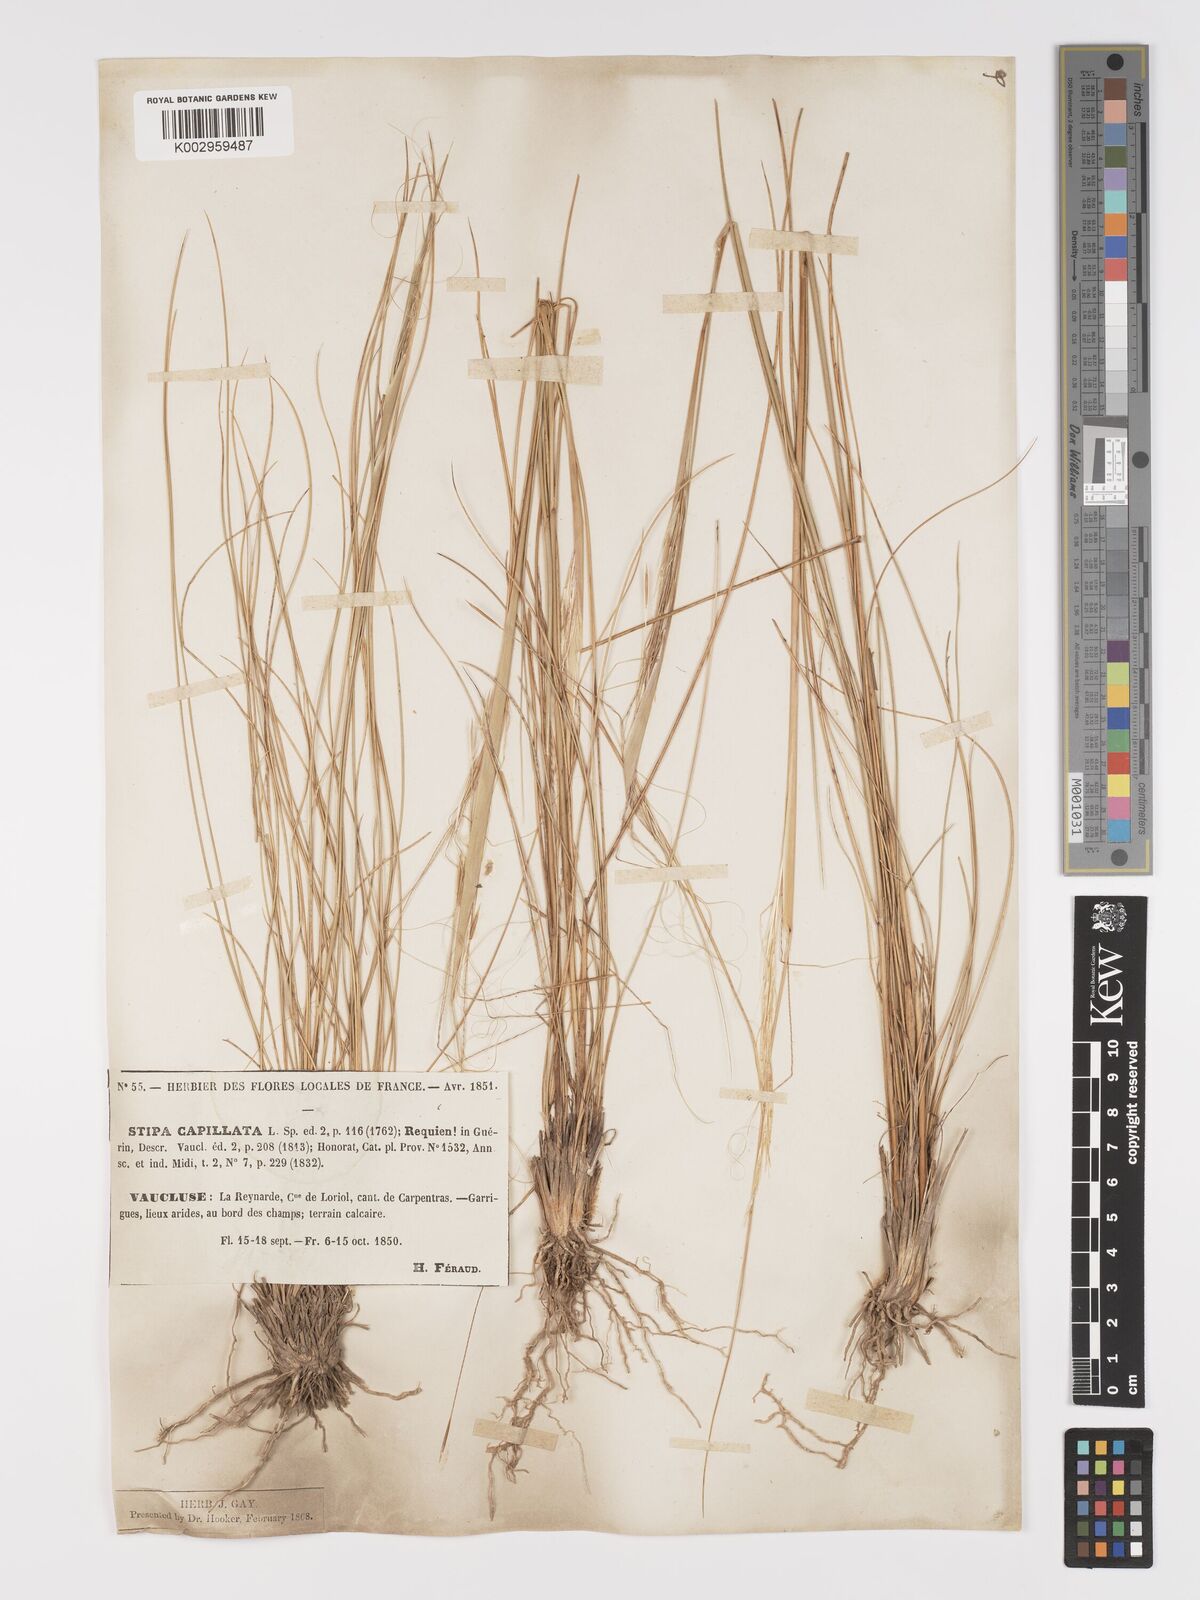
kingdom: Plantae
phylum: Tracheophyta
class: Liliopsida
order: Poales
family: Poaceae
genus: Stipa
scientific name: Stipa capillata
